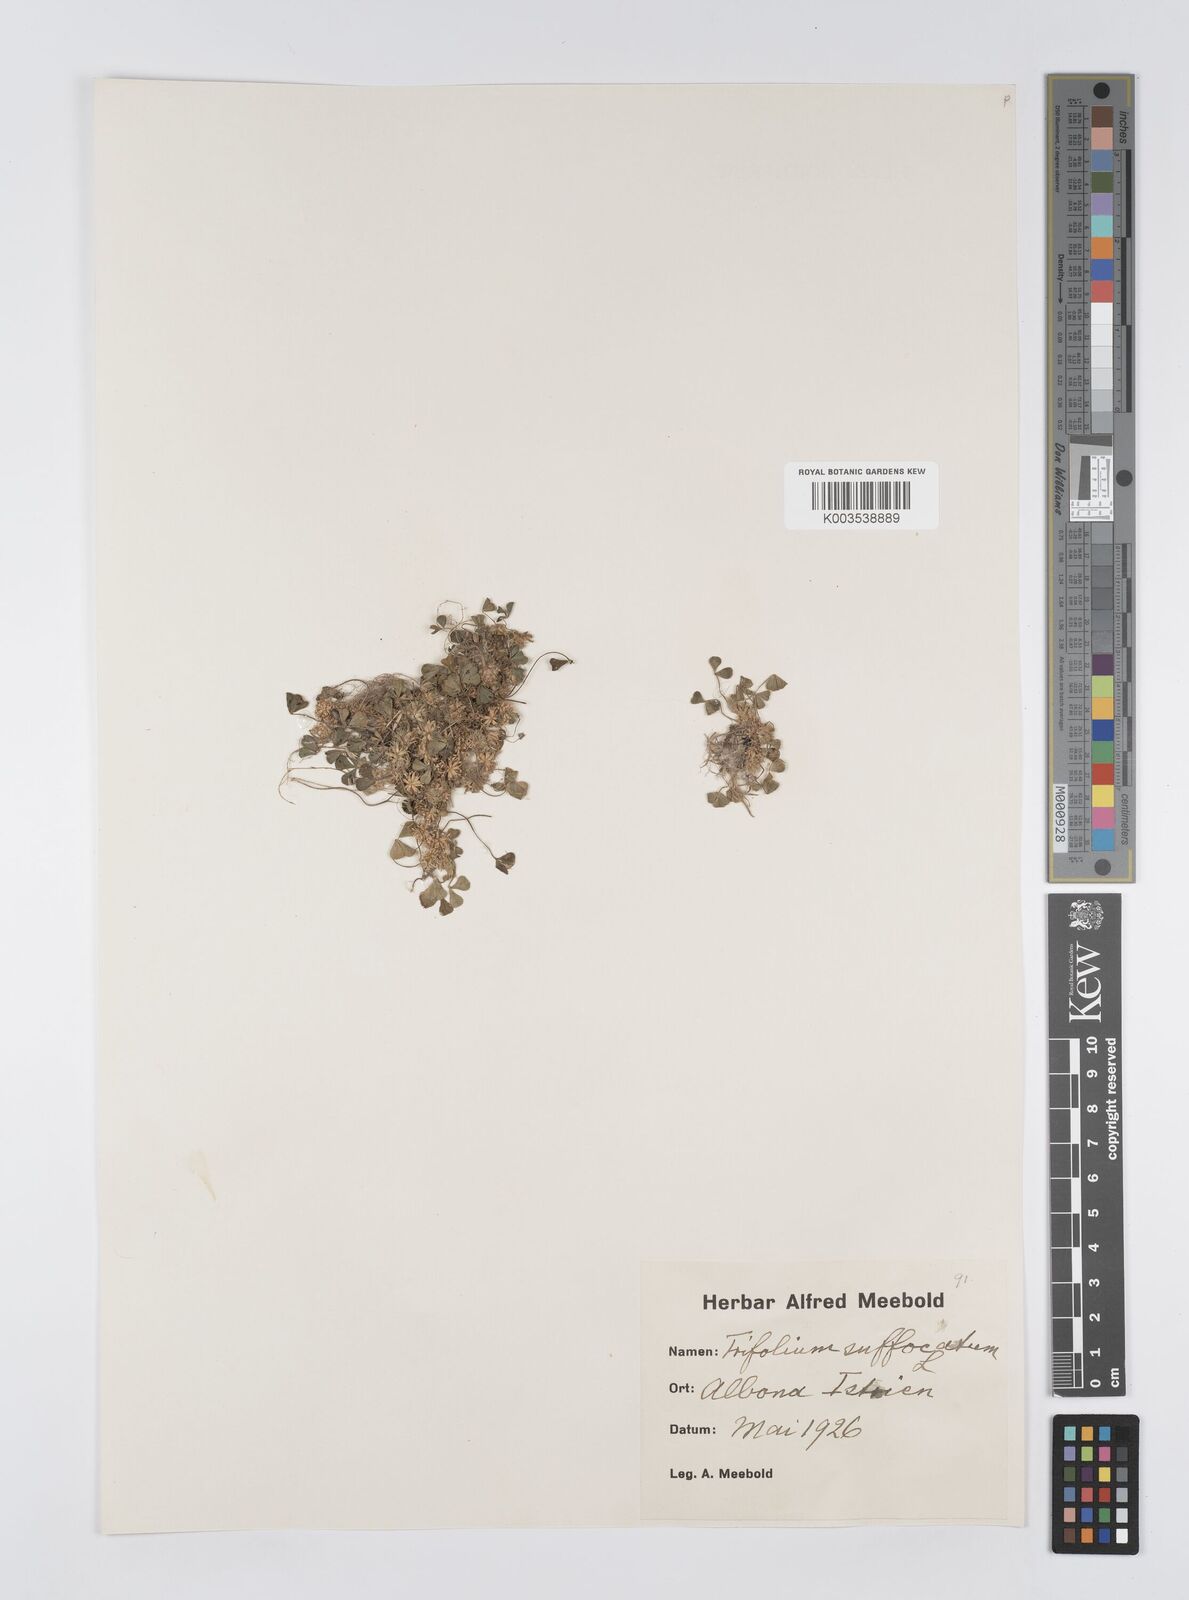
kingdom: Plantae
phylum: Tracheophyta
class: Magnoliopsida
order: Fabales
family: Fabaceae
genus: Trifolium
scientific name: Trifolium suffocatum
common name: Suffocated clover
